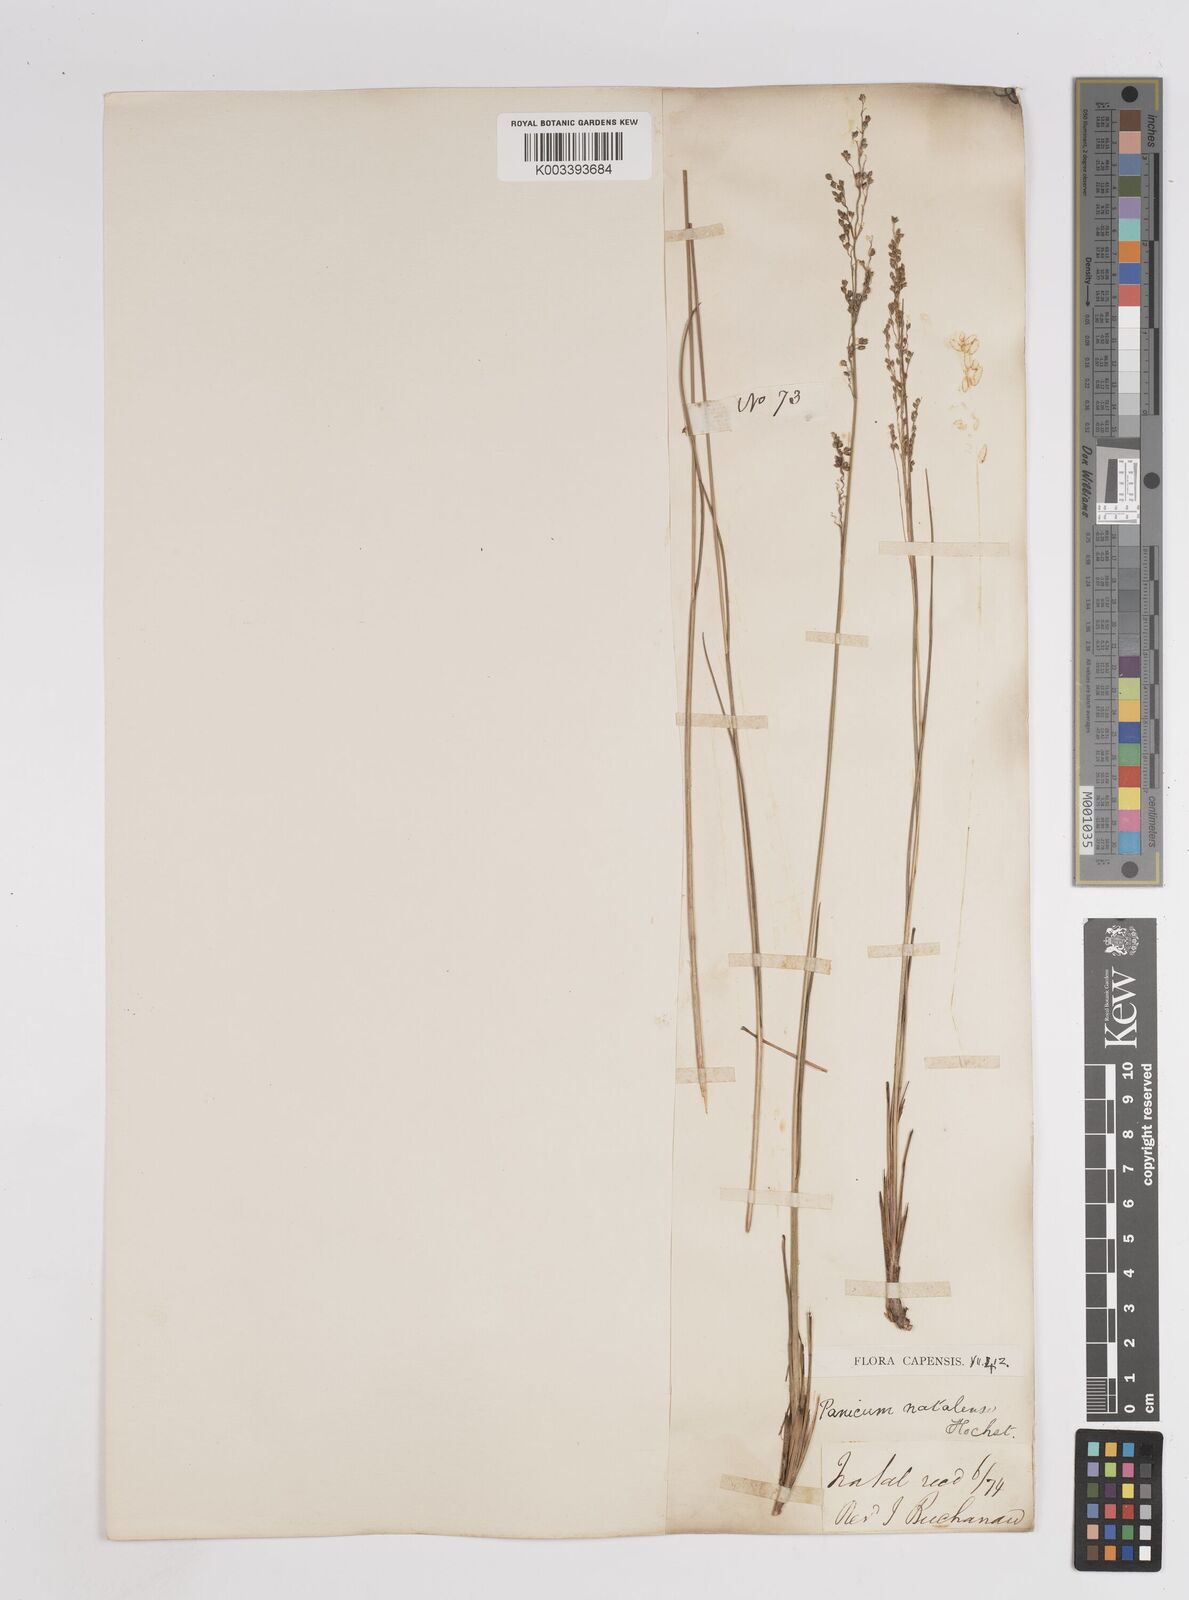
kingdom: Plantae
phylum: Tracheophyta
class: Liliopsida
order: Poales
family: Poaceae
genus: Trichanthecium
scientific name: Trichanthecium natalense
